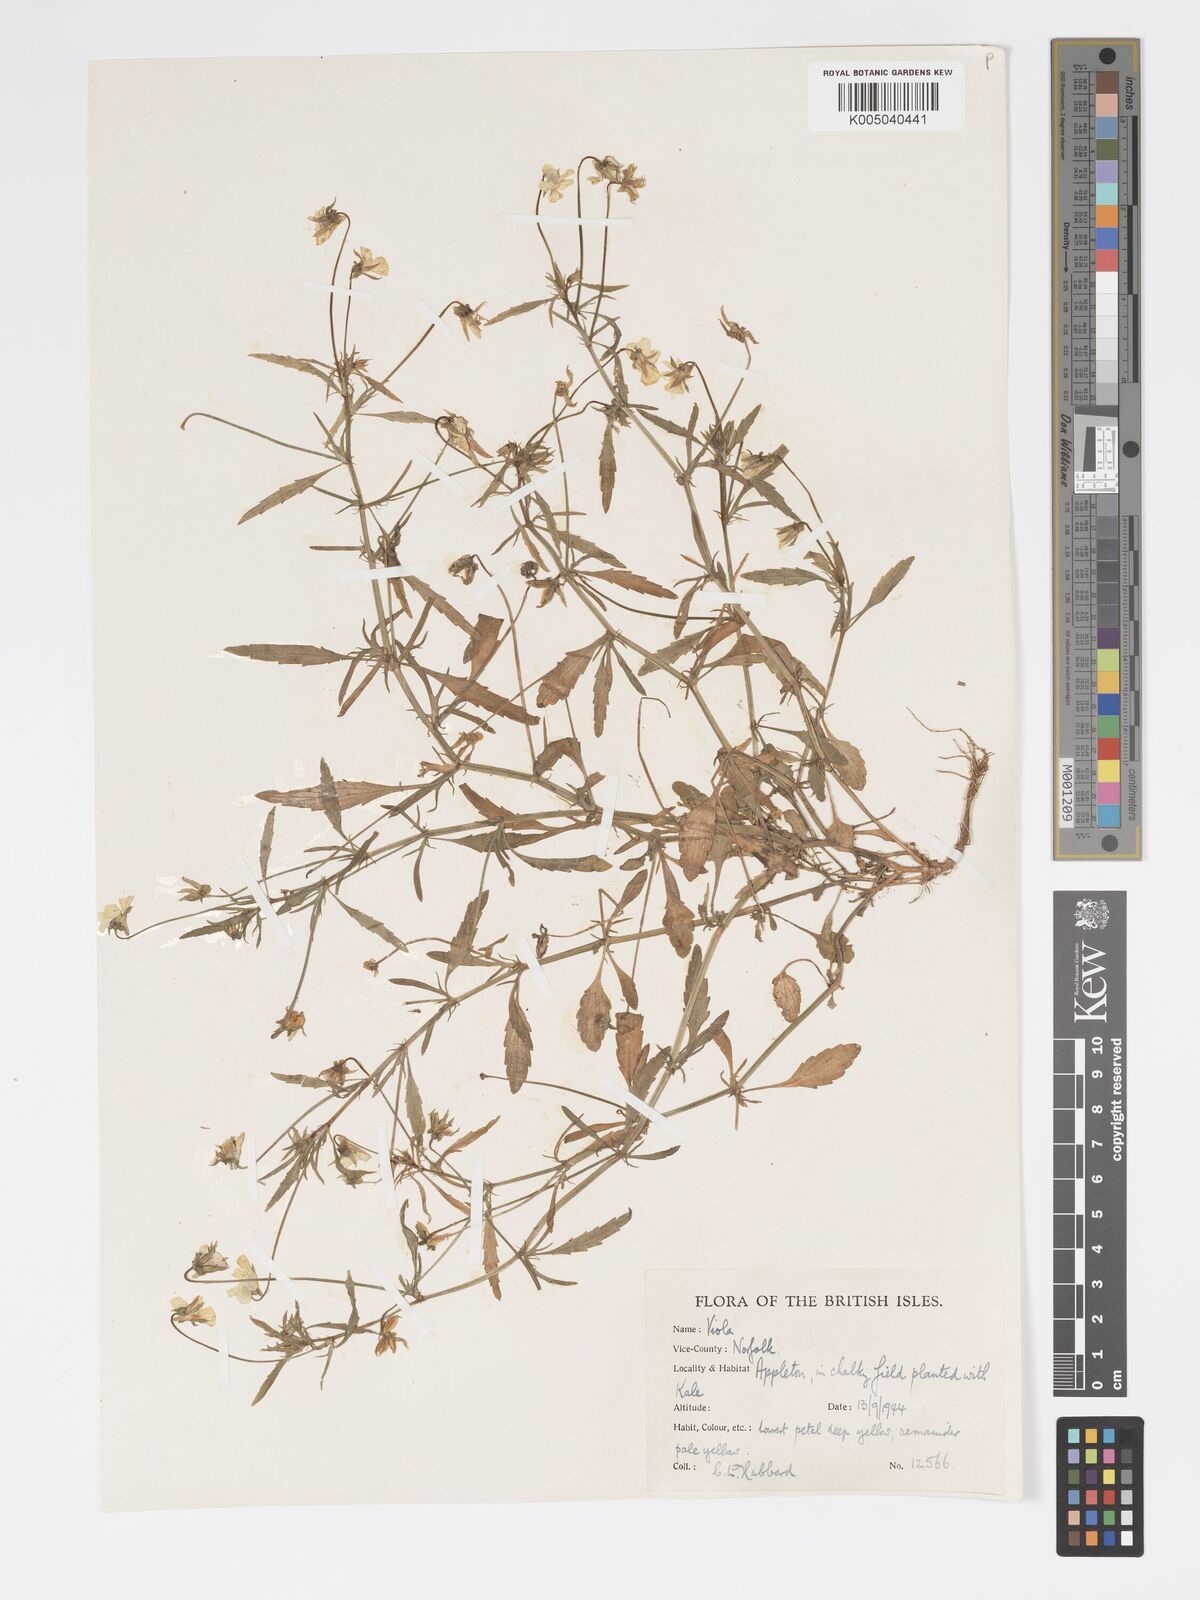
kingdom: Plantae
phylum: Tracheophyta
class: Magnoliopsida
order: Malpighiales
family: Violaceae
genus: Viola
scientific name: Viola arvensis
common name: Field pansy
